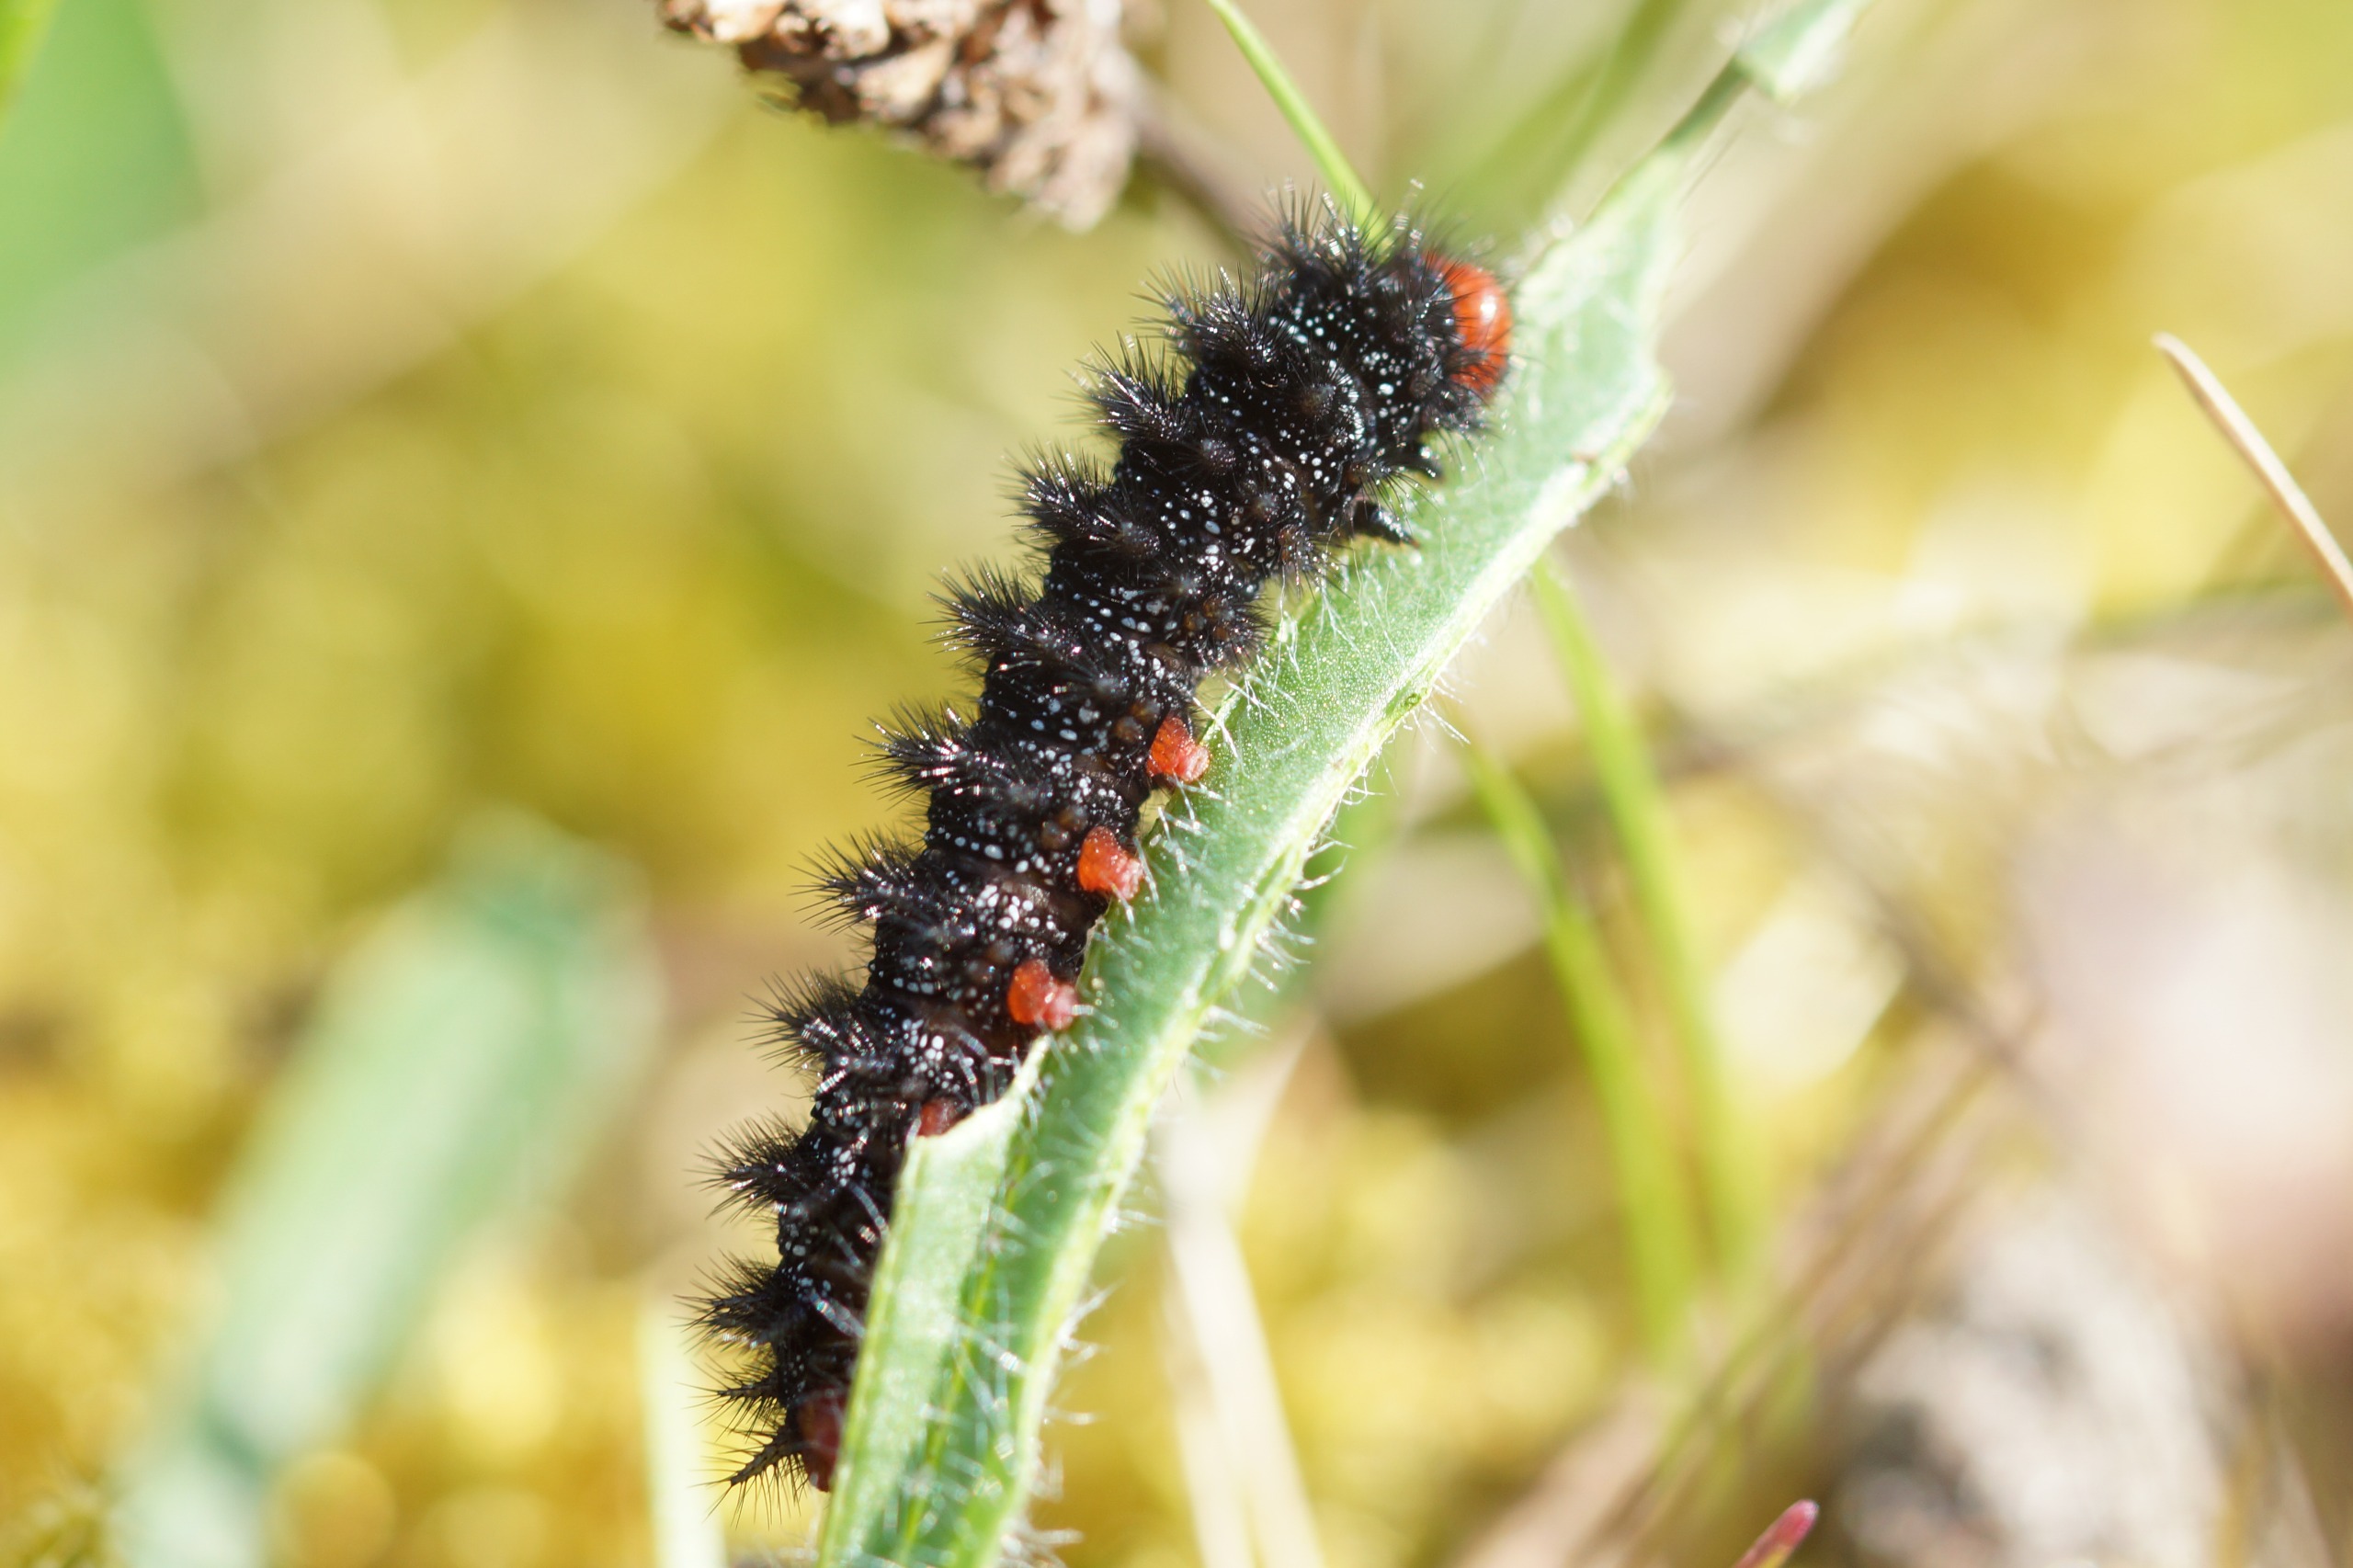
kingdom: Animalia
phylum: Arthropoda
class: Insecta
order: Lepidoptera
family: Nymphalidae
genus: Melitaea
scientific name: Melitaea cinxia
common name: Okkergul pletvinge
